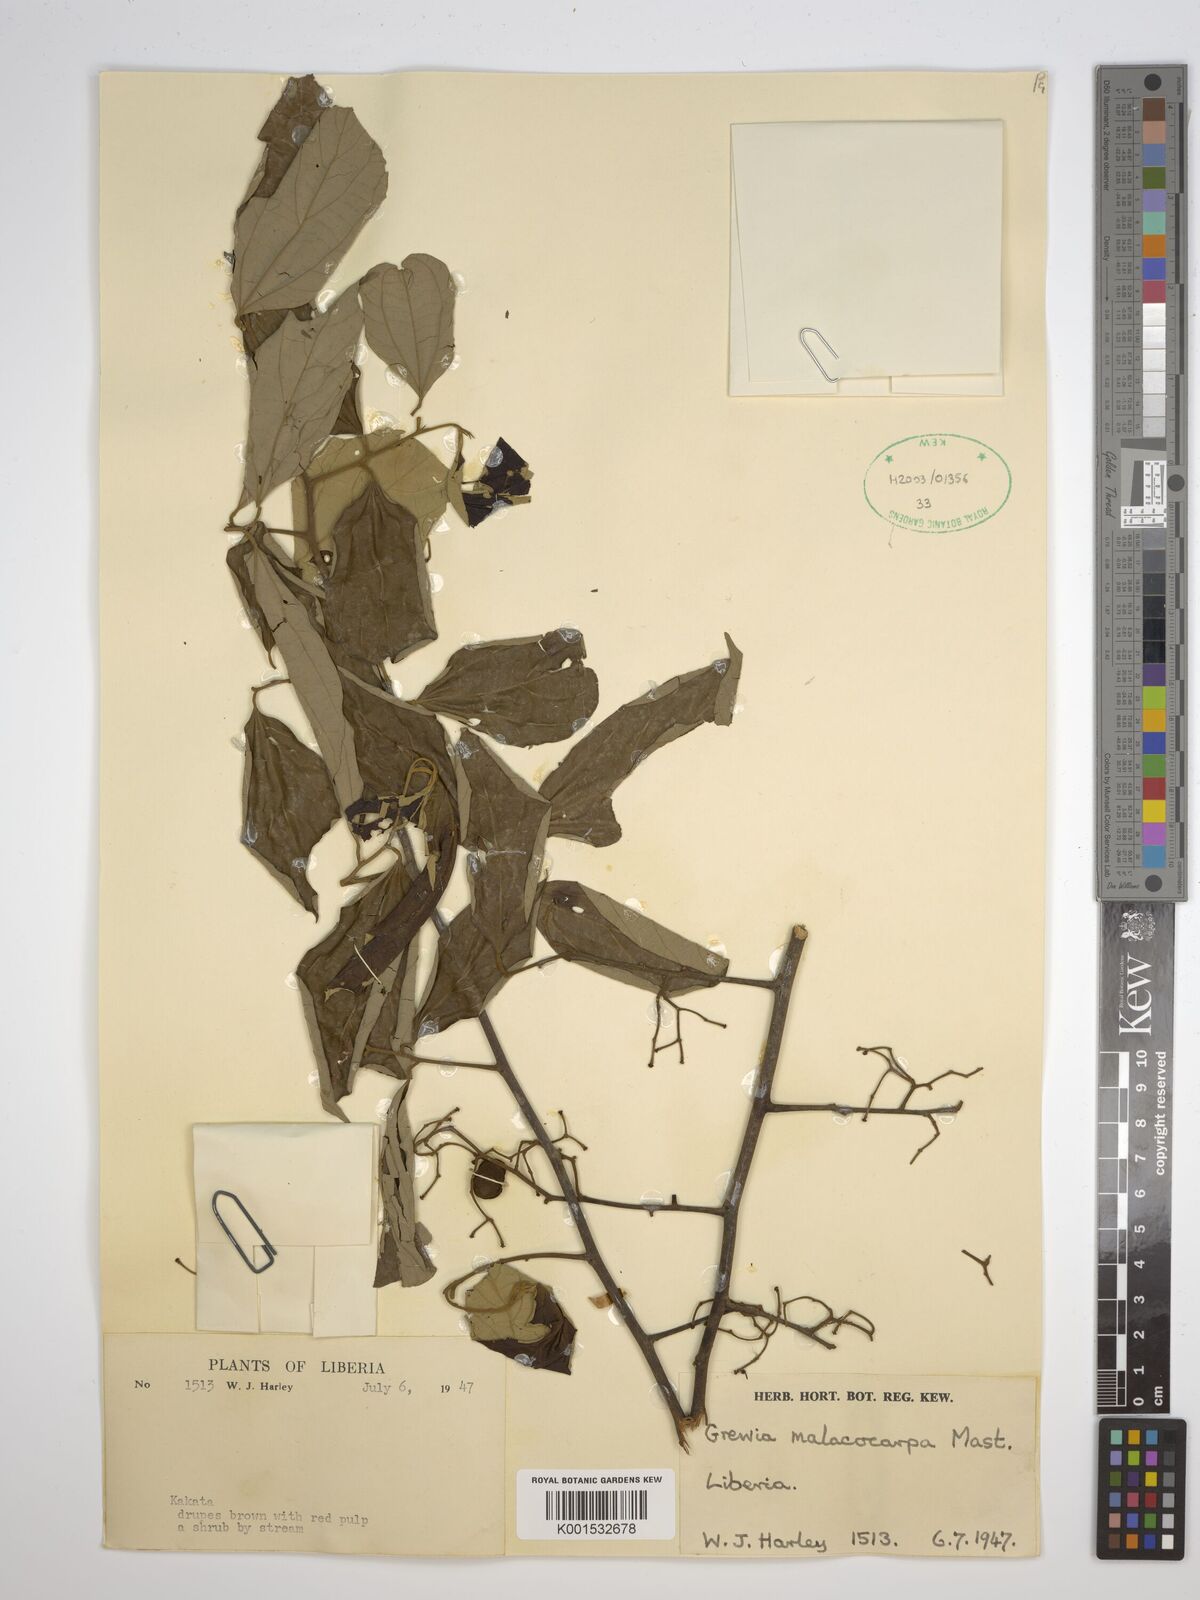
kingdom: Plantae
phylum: Tracheophyta
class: Magnoliopsida
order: Malvales
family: Malvaceae
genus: Microcos
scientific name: Microcos malacocarpa
